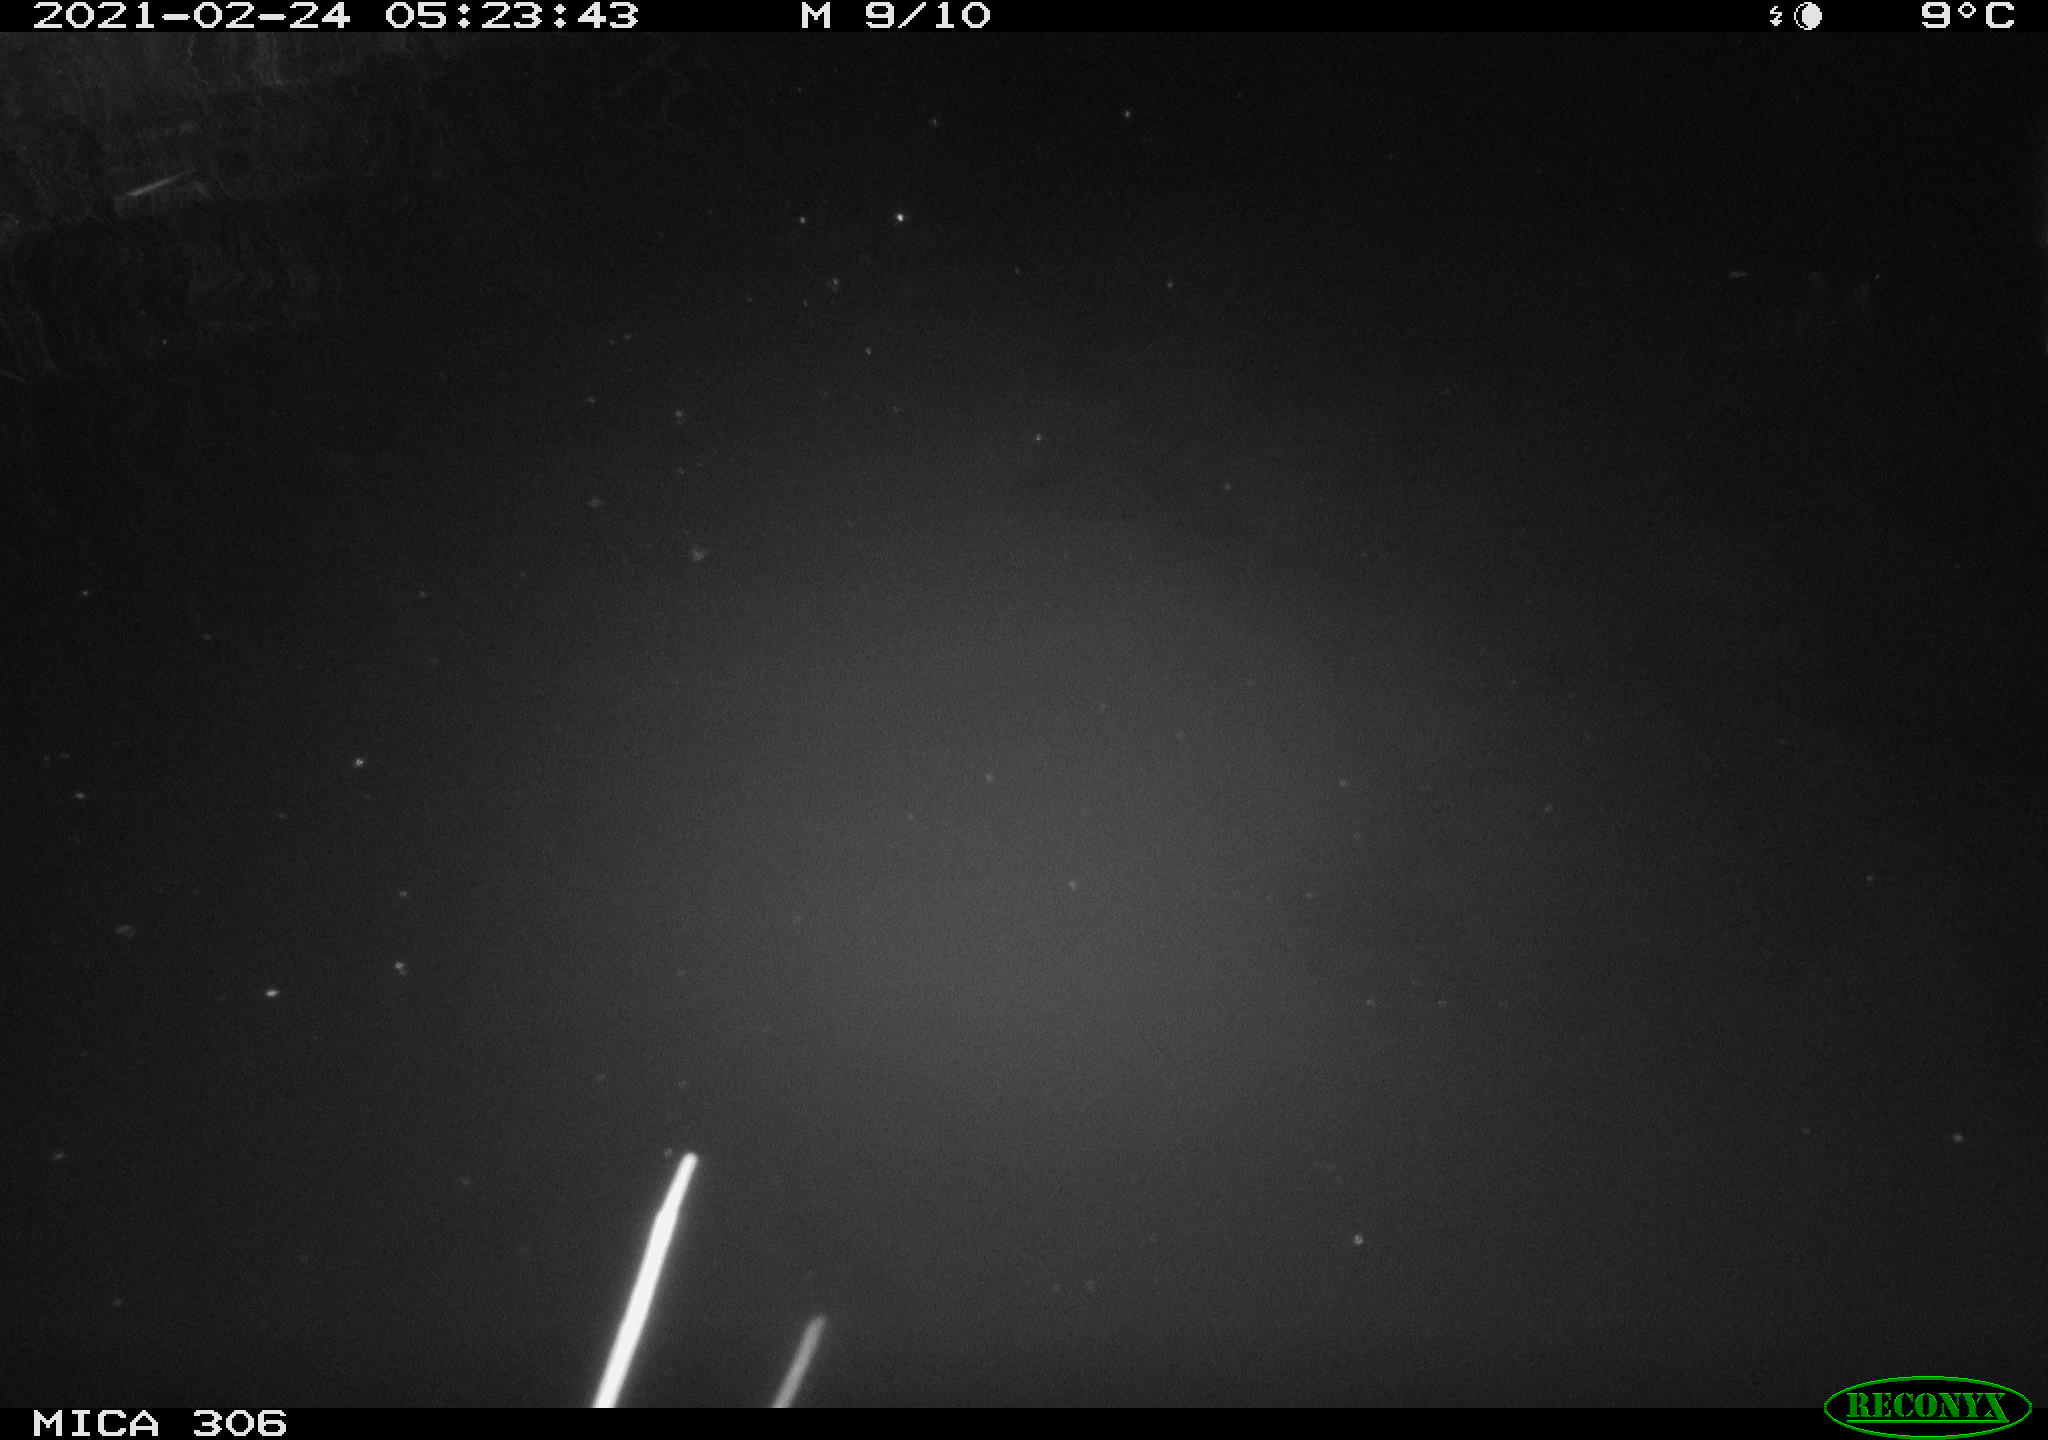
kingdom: Animalia
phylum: Chordata
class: Mammalia
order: Rodentia
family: Cricetidae
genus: Ondatra
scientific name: Ondatra zibethicus
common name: Muskrat
